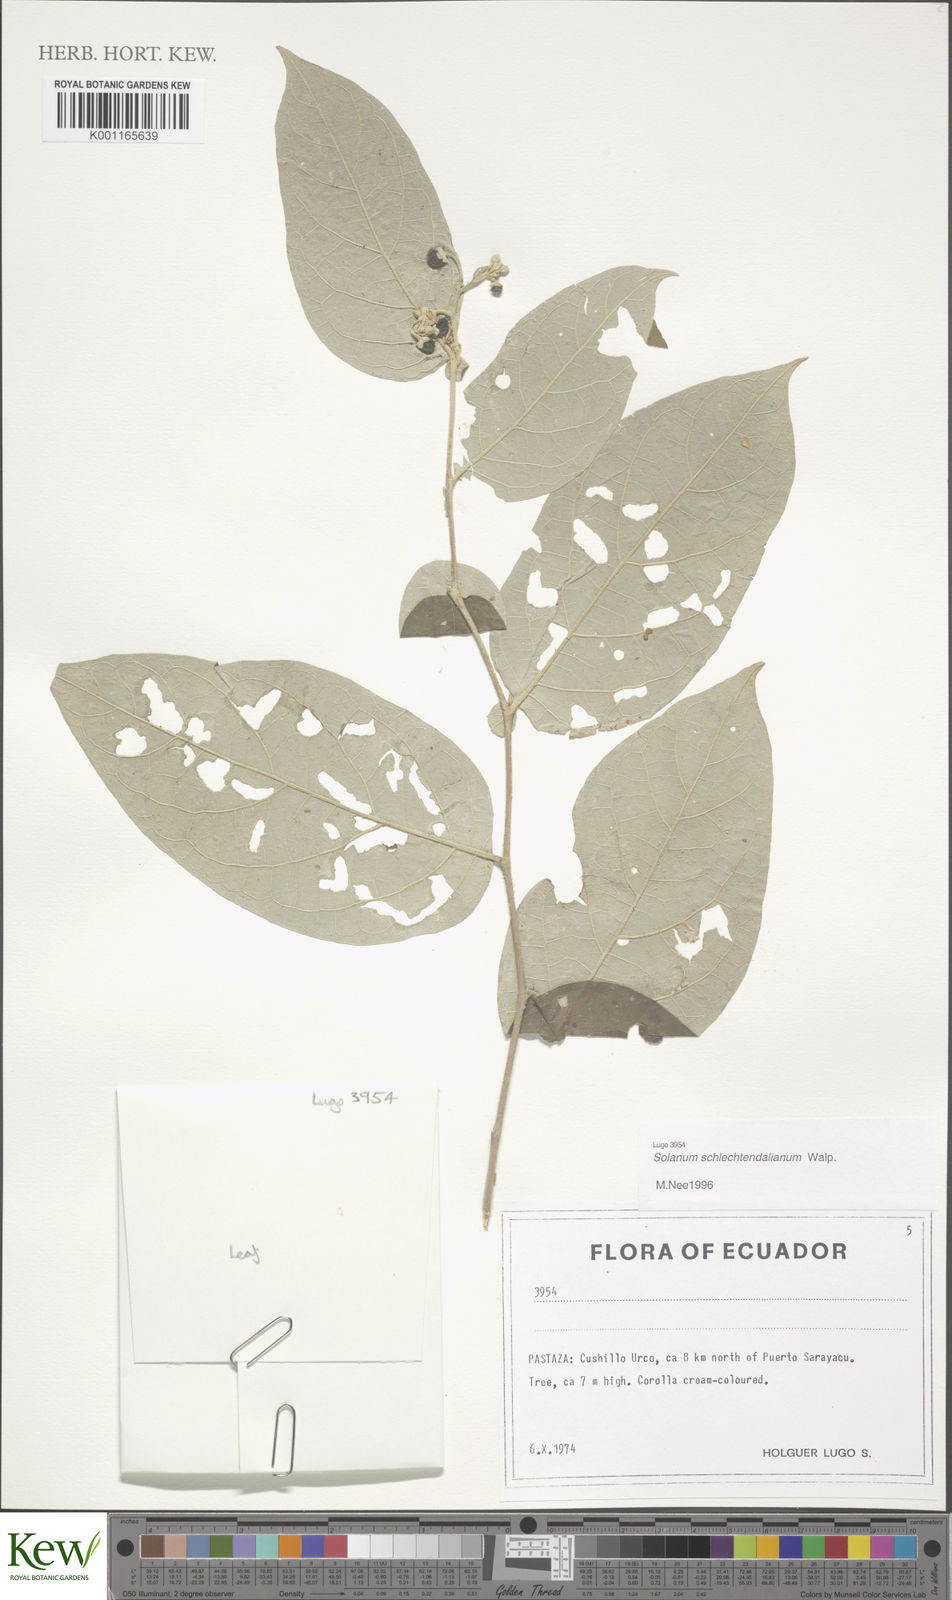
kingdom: Plantae
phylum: Tracheophyta
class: Magnoliopsida
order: Solanales
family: Solanaceae
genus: Solanum
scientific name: Solanum schlechtendalianum
